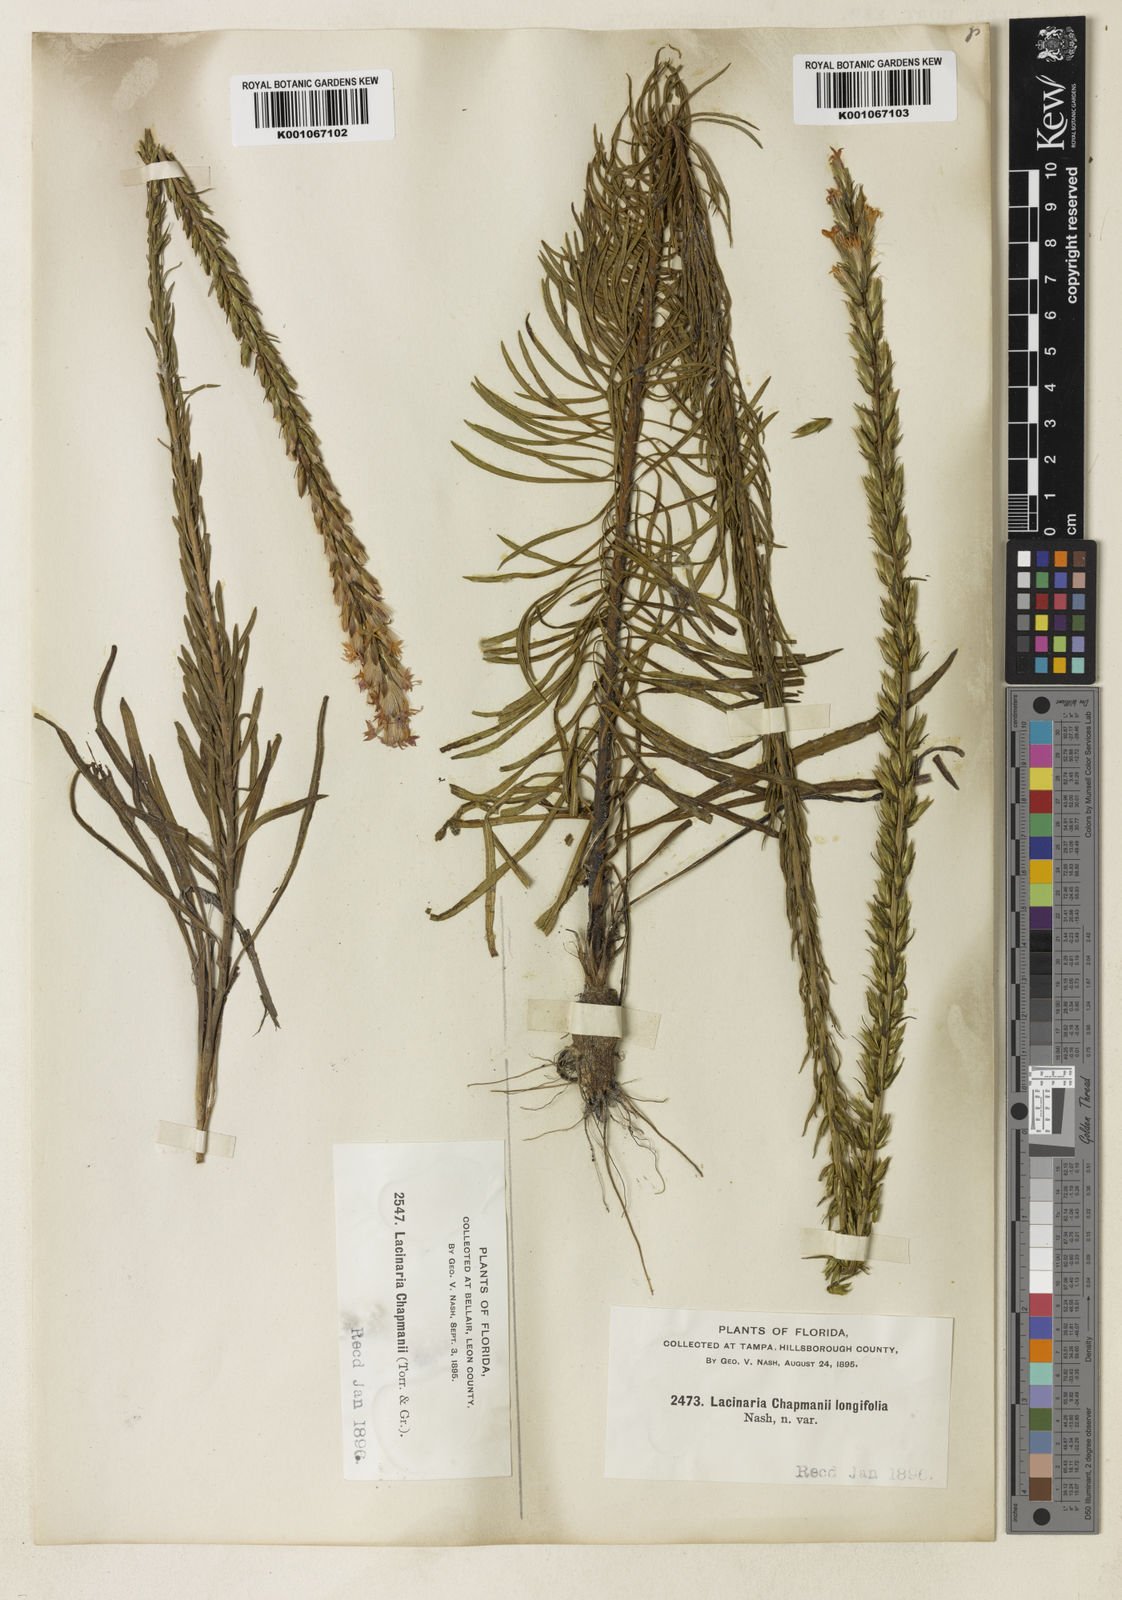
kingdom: Plantae
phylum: Tracheophyta
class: Magnoliopsida
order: Asterales
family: Asteraceae
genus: Liatris
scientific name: Liatris chapmanii
